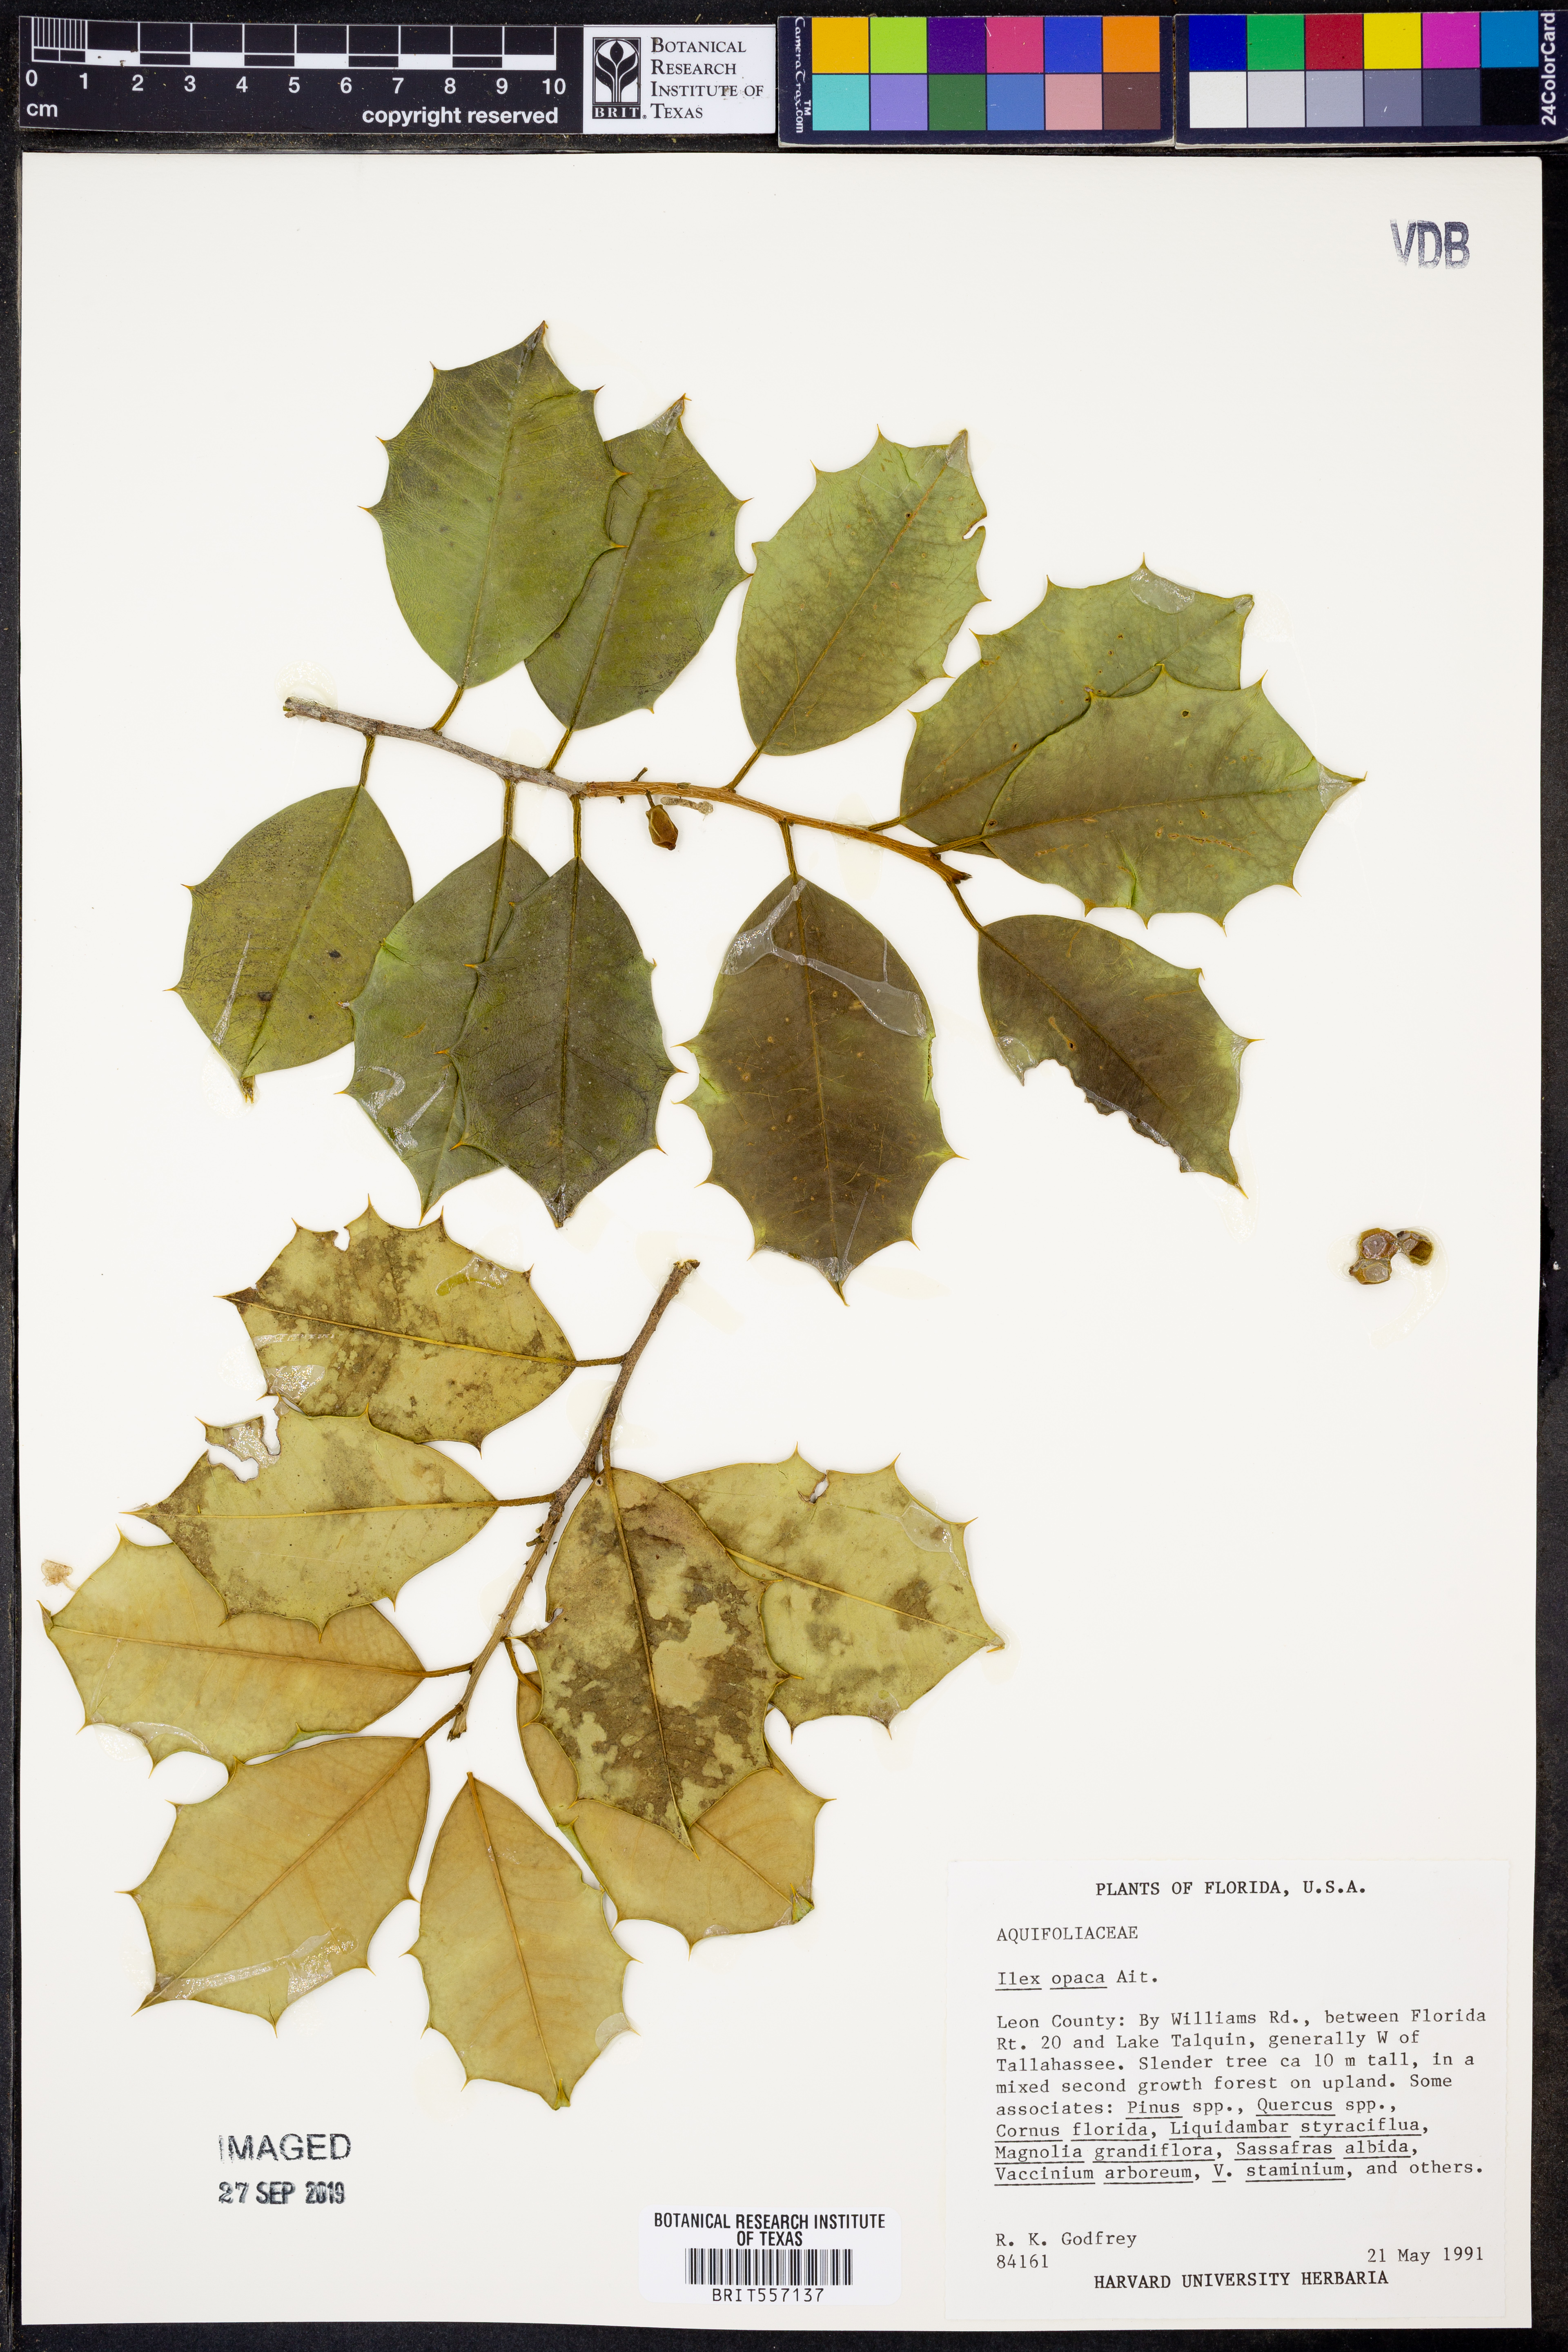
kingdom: Plantae
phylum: Tracheophyta
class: Magnoliopsida
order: Aquifoliales
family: Aquifoliaceae
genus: Ilex
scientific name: Ilex opaca
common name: American holly
